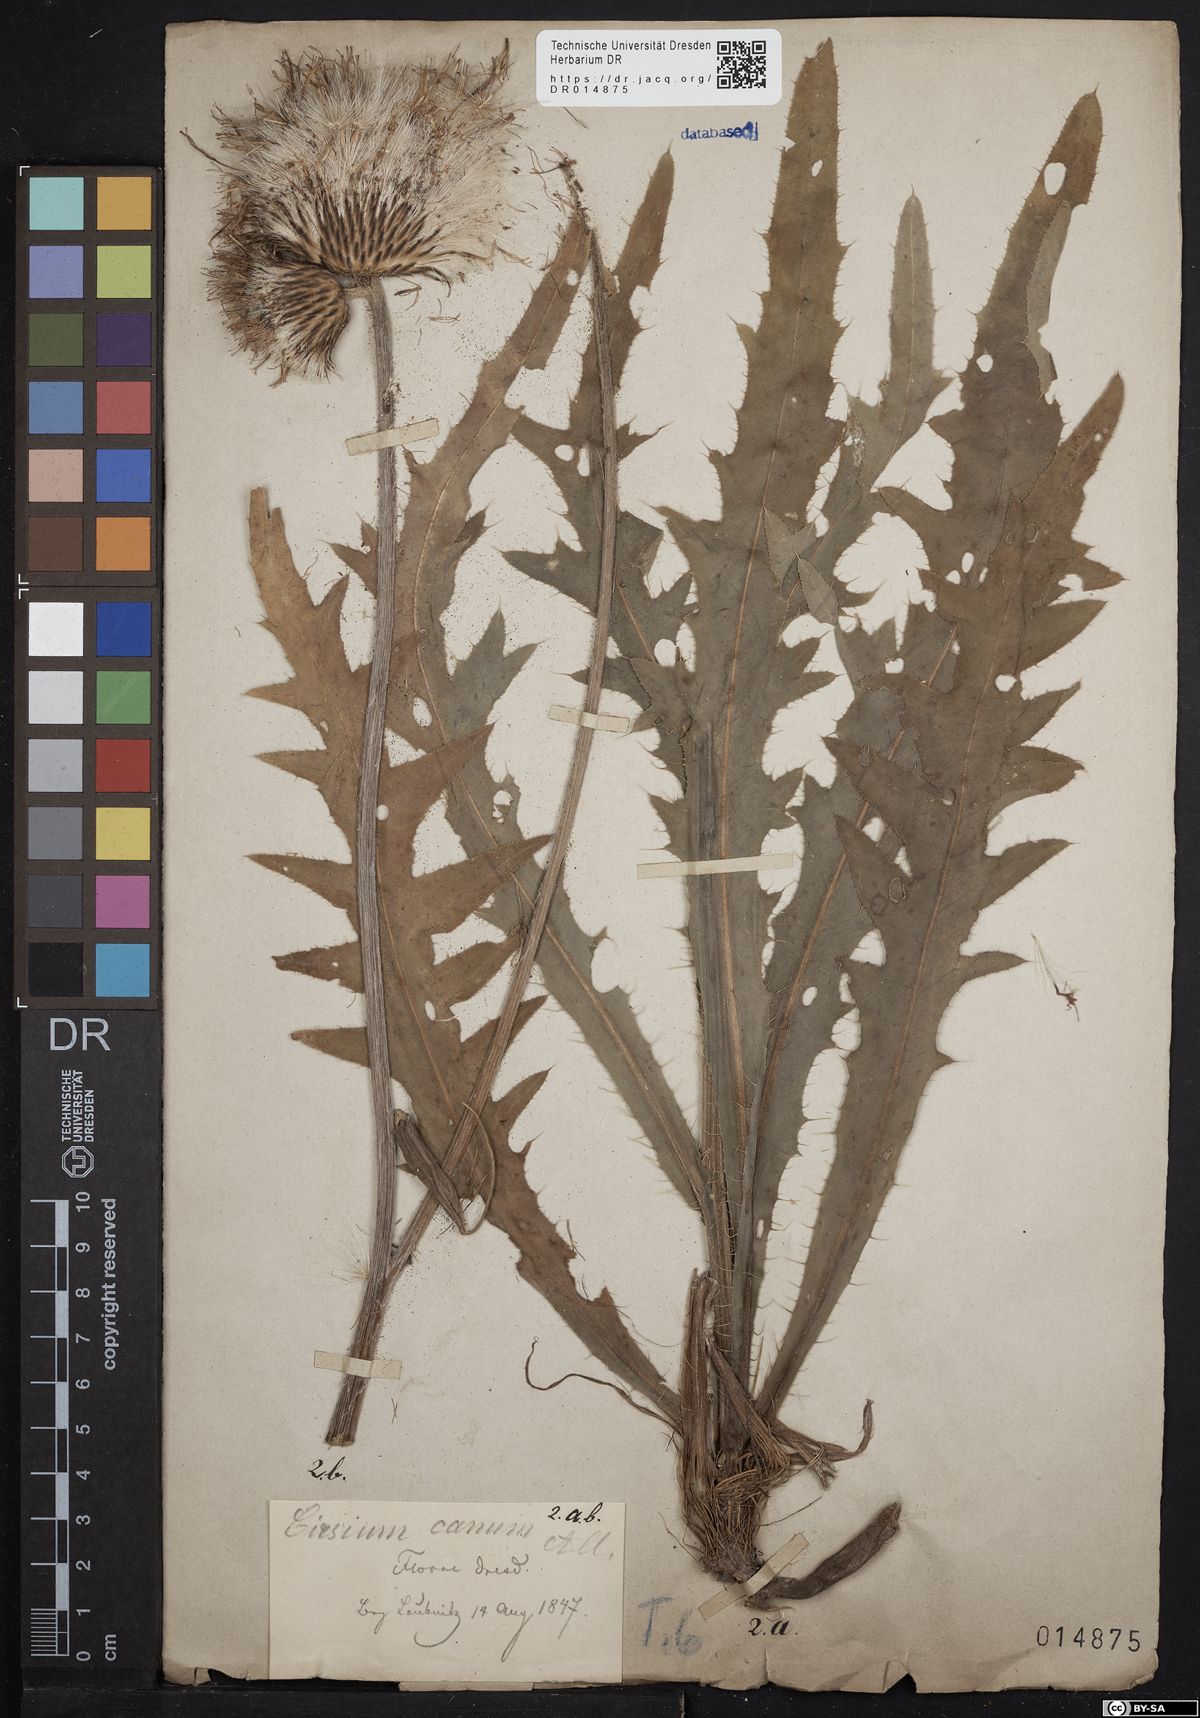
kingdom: Plantae
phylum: Tracheophyta
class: Magnoliopsida
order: Asterales
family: Asteraceae
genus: Cirsium
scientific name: Cirsium canum
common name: Queen anne's thistle
